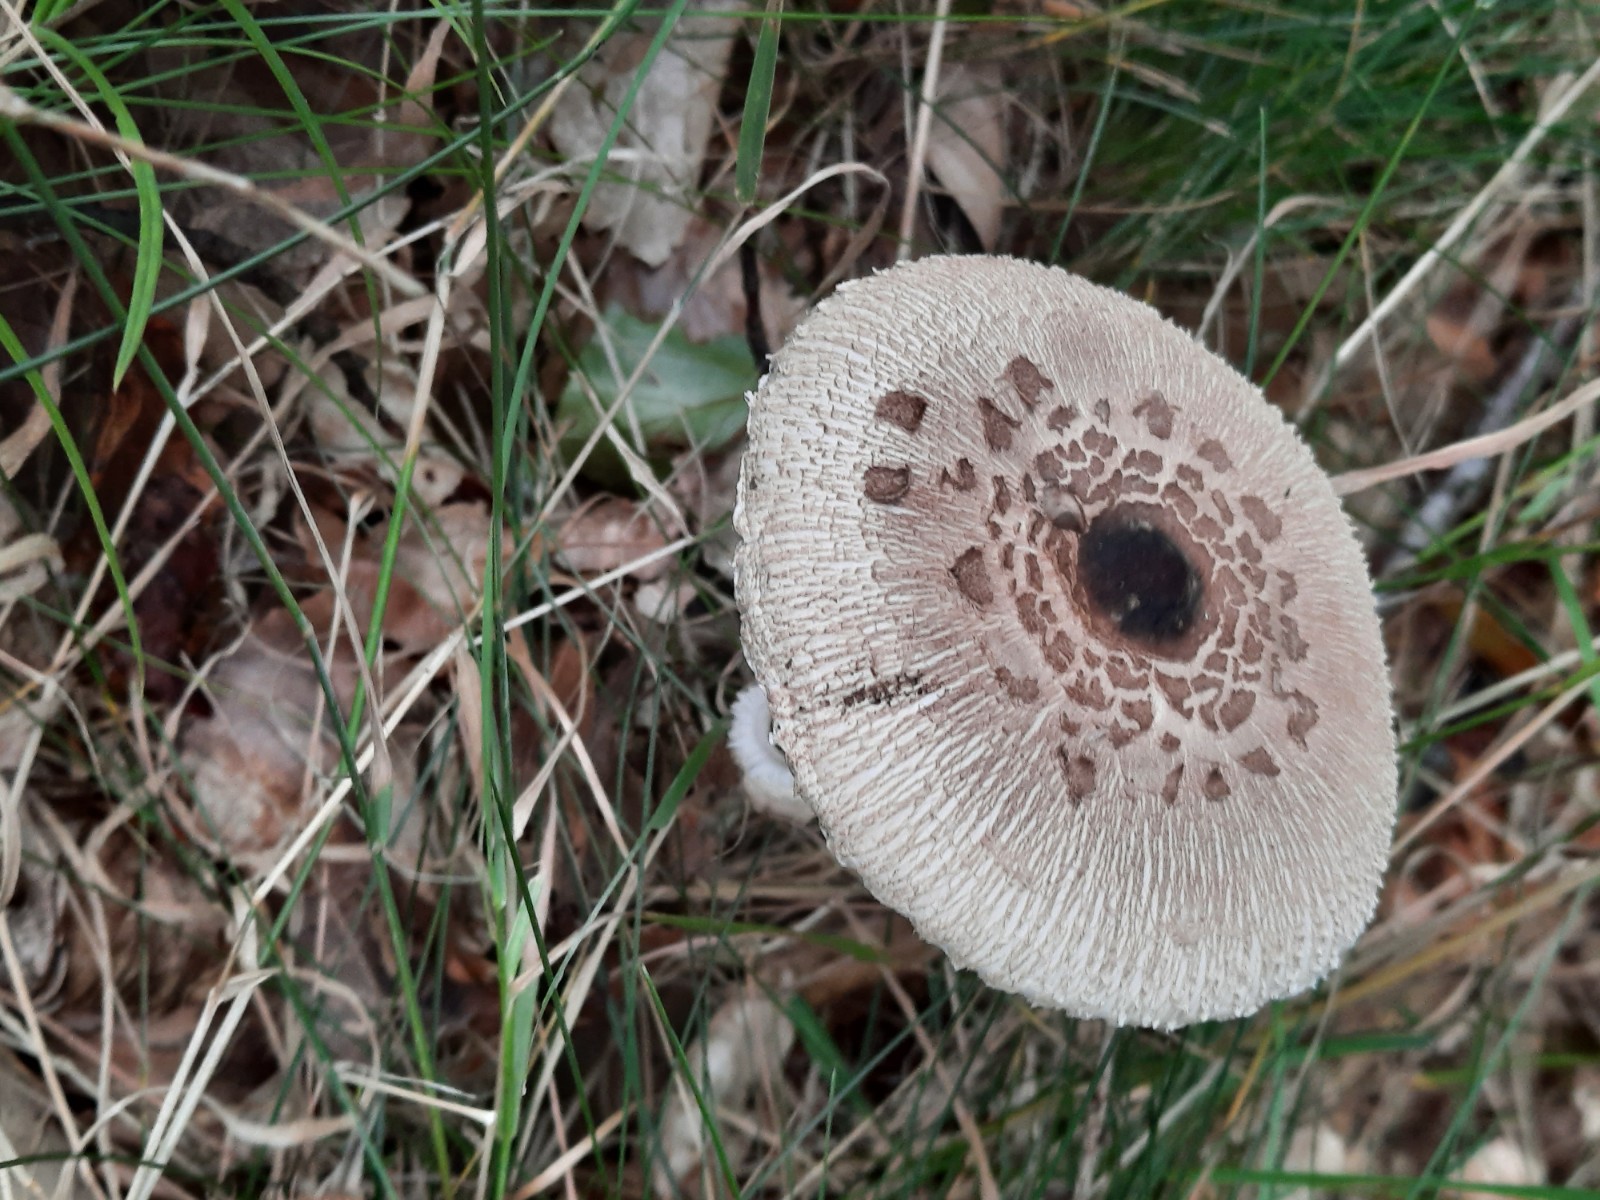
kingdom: Fungi
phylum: Basidiomycota
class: Agaricomycetes
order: Agaricales
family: Agaricaceae
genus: Macrolepiota
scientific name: Macrolepiota procera
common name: stor kæmpeparasolhat
